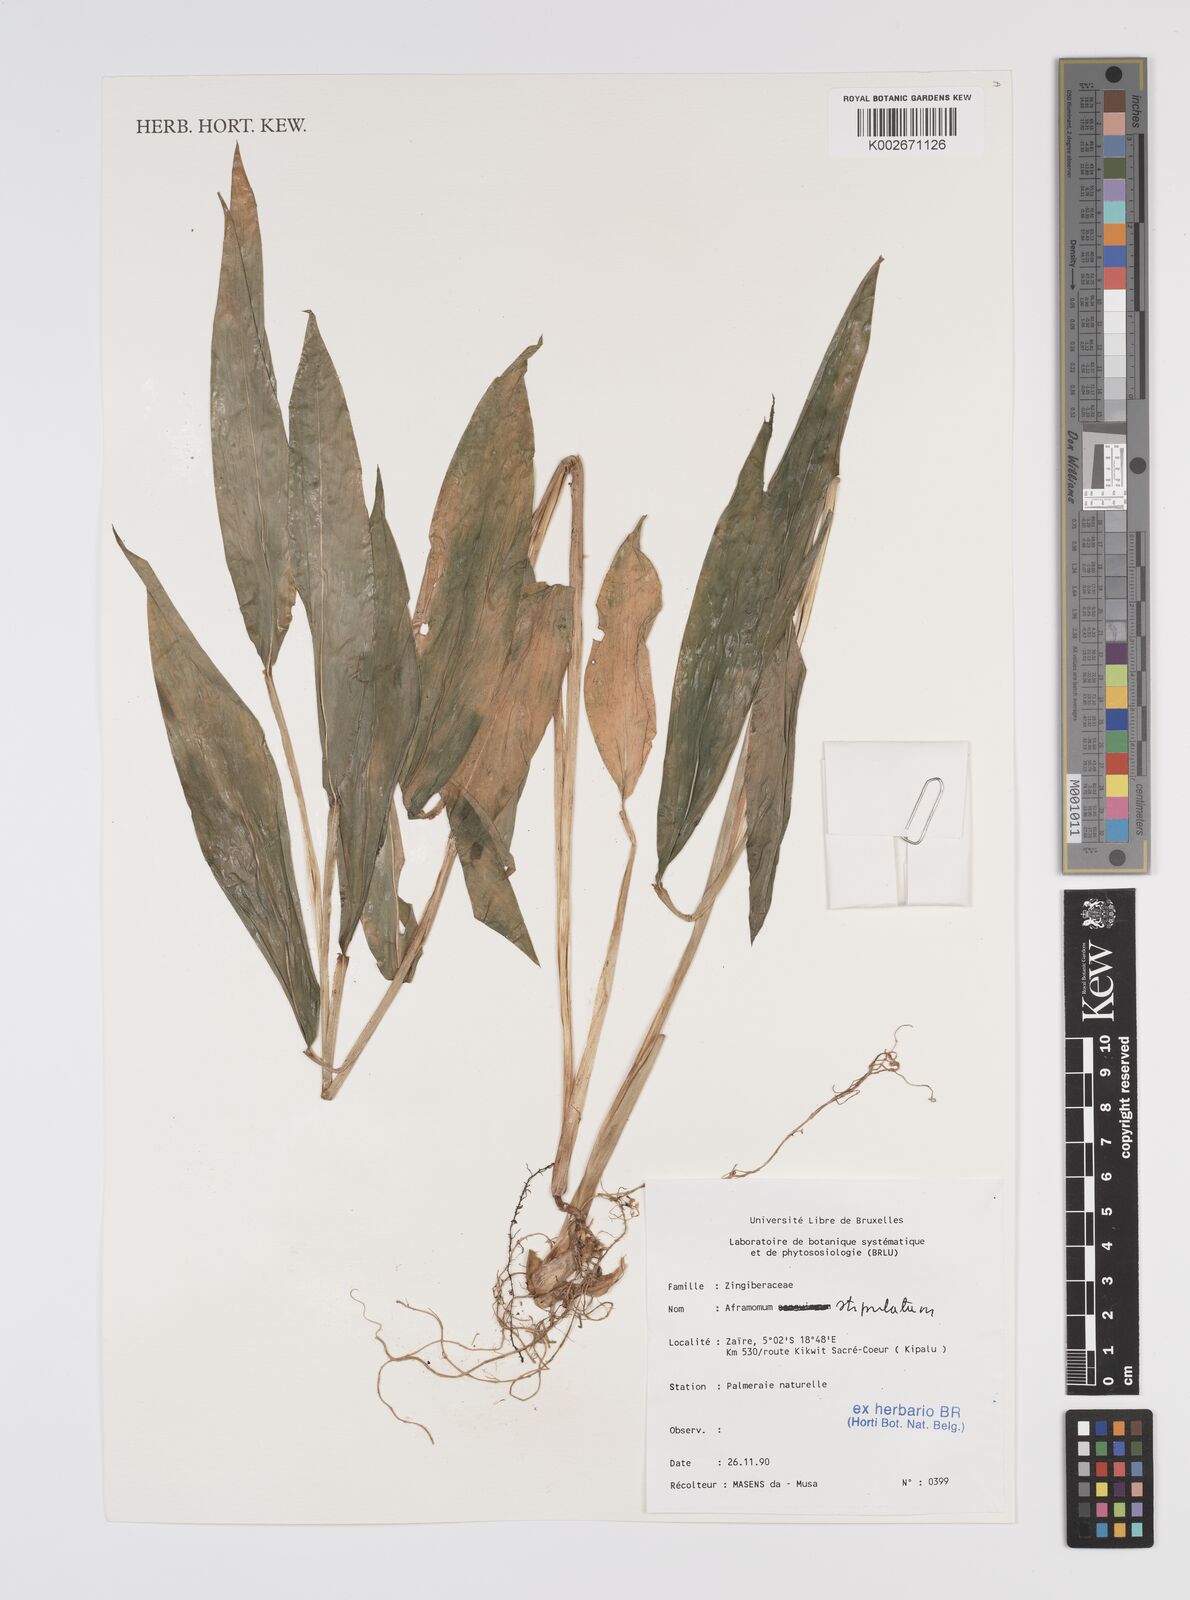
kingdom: Plantae
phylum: Tracheophyta
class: Liliopsida
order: Zingiberales
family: Zingiberaceae
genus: Aframomum
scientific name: Aframomum alboviolaceum
